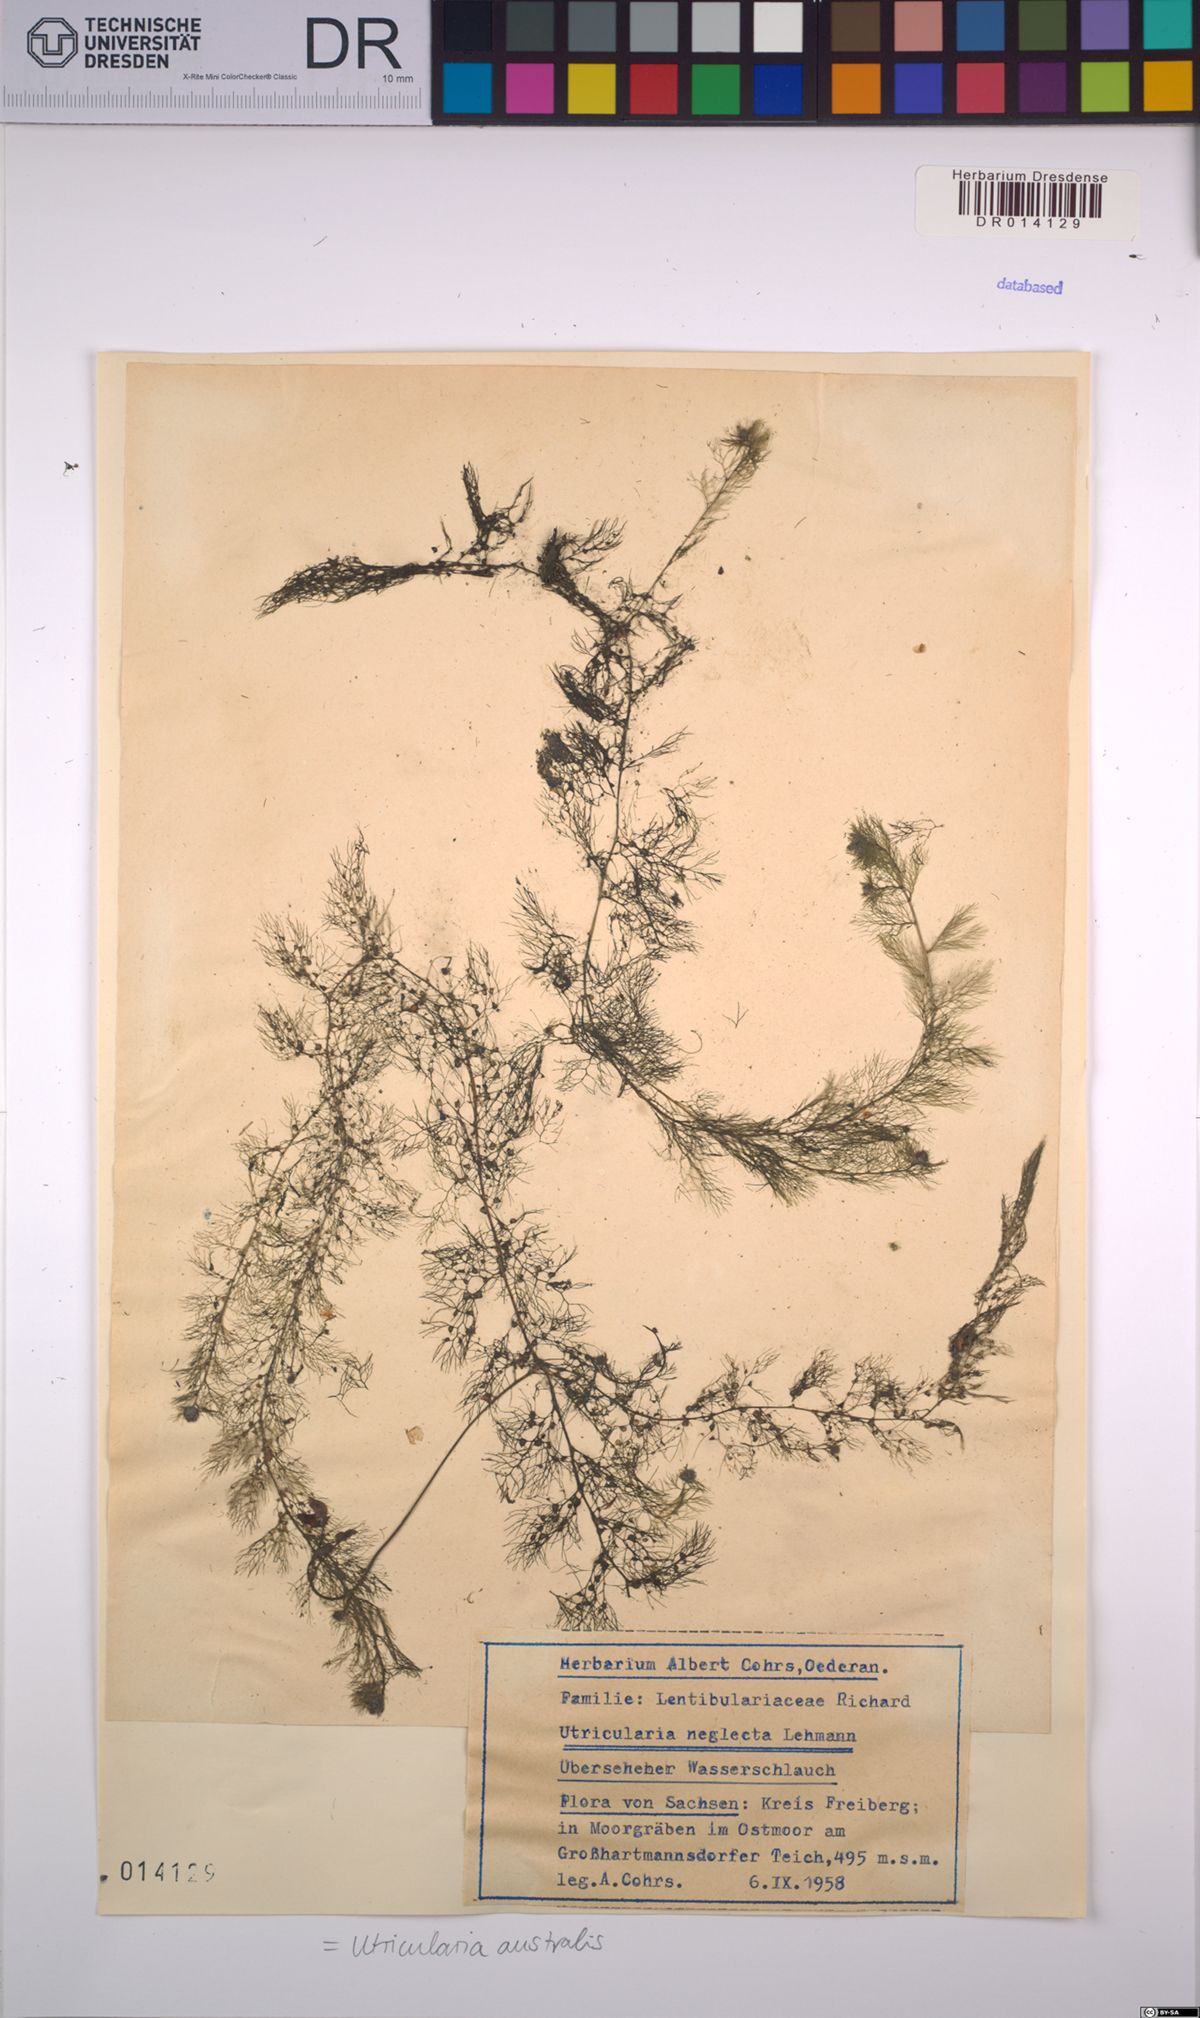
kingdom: Plantae
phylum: Tracheophyta
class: Magnoliopsida
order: Lamiales
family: Lentibulariaceae
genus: Utricularia
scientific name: Utricularia australis
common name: Bladderwort
